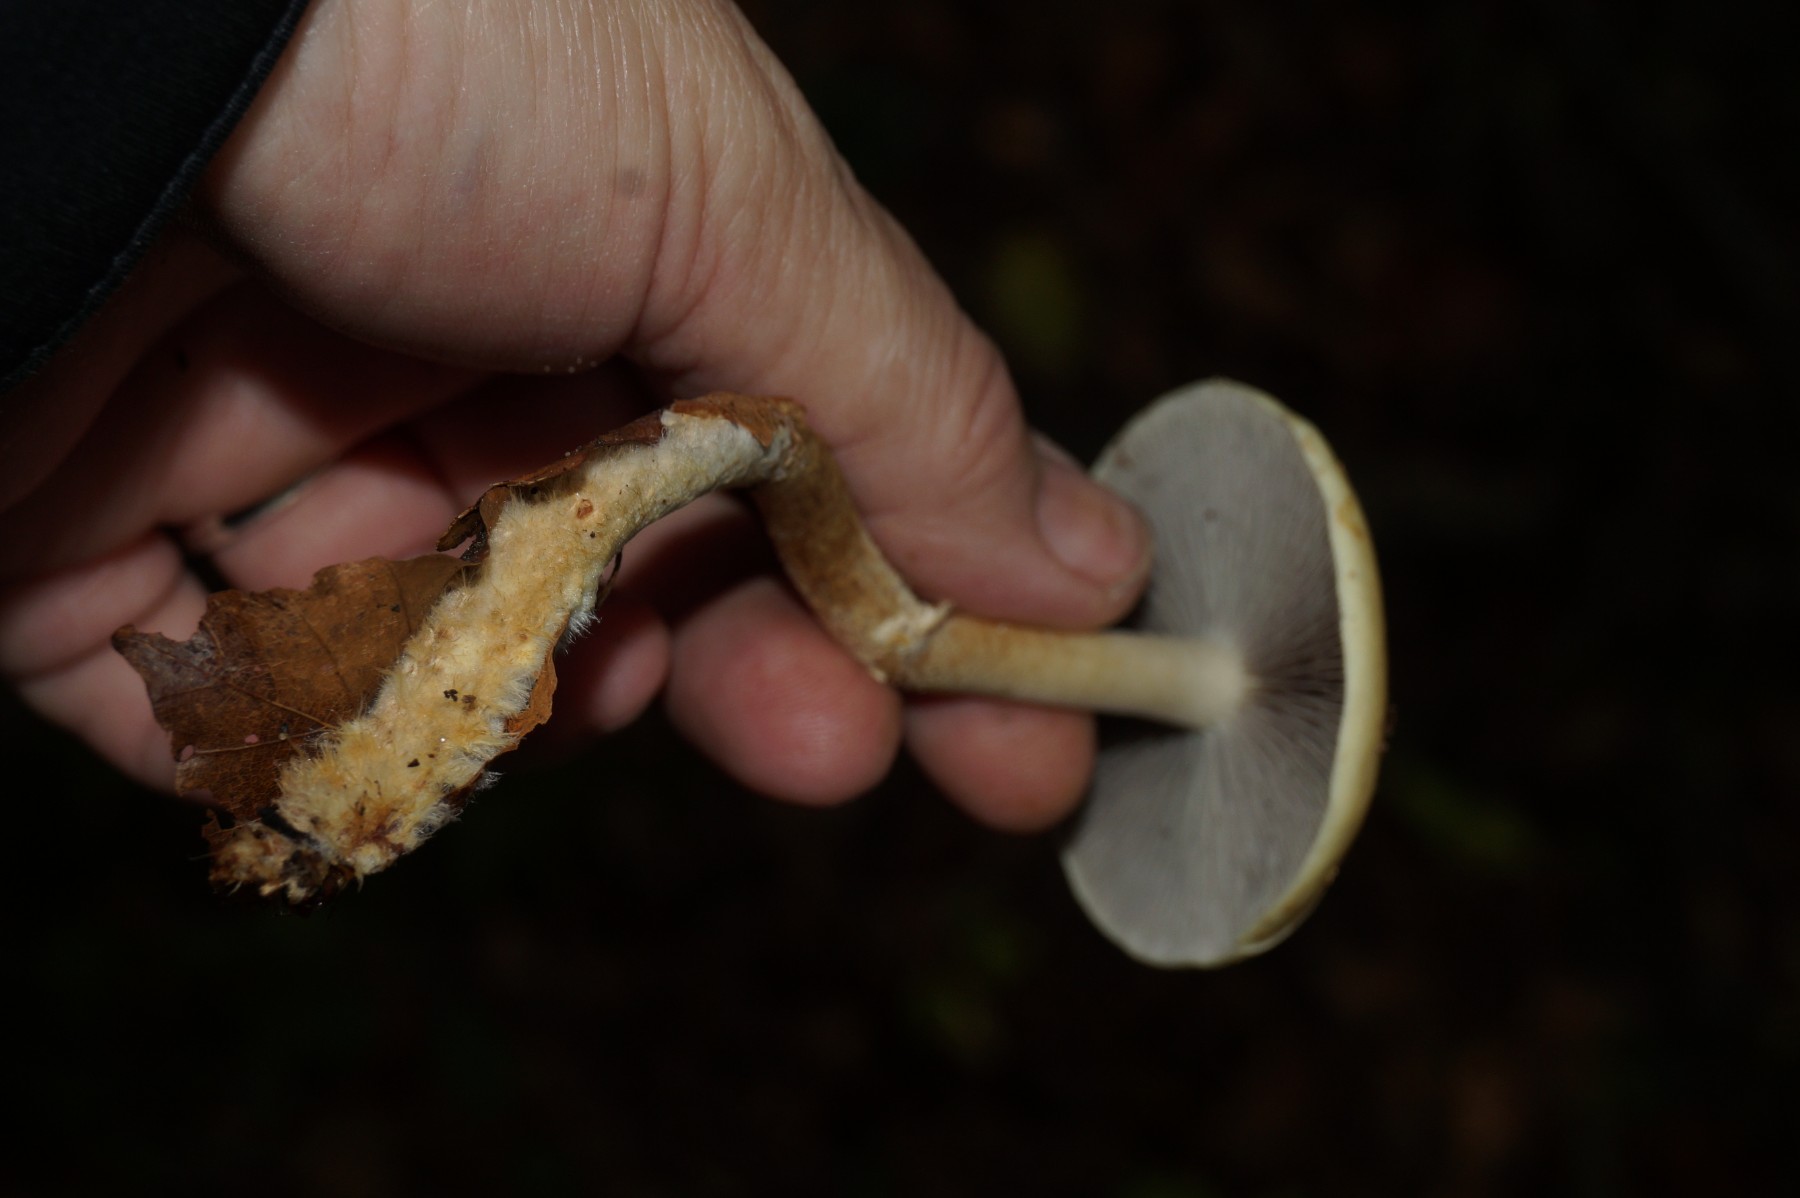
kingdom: Fungi
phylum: Basidiomycota
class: Agaricomycetes
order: Agaricales
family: Strophariaceae
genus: Leratiomyces
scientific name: Leratiomyces squamosus
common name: skællet bredblad
